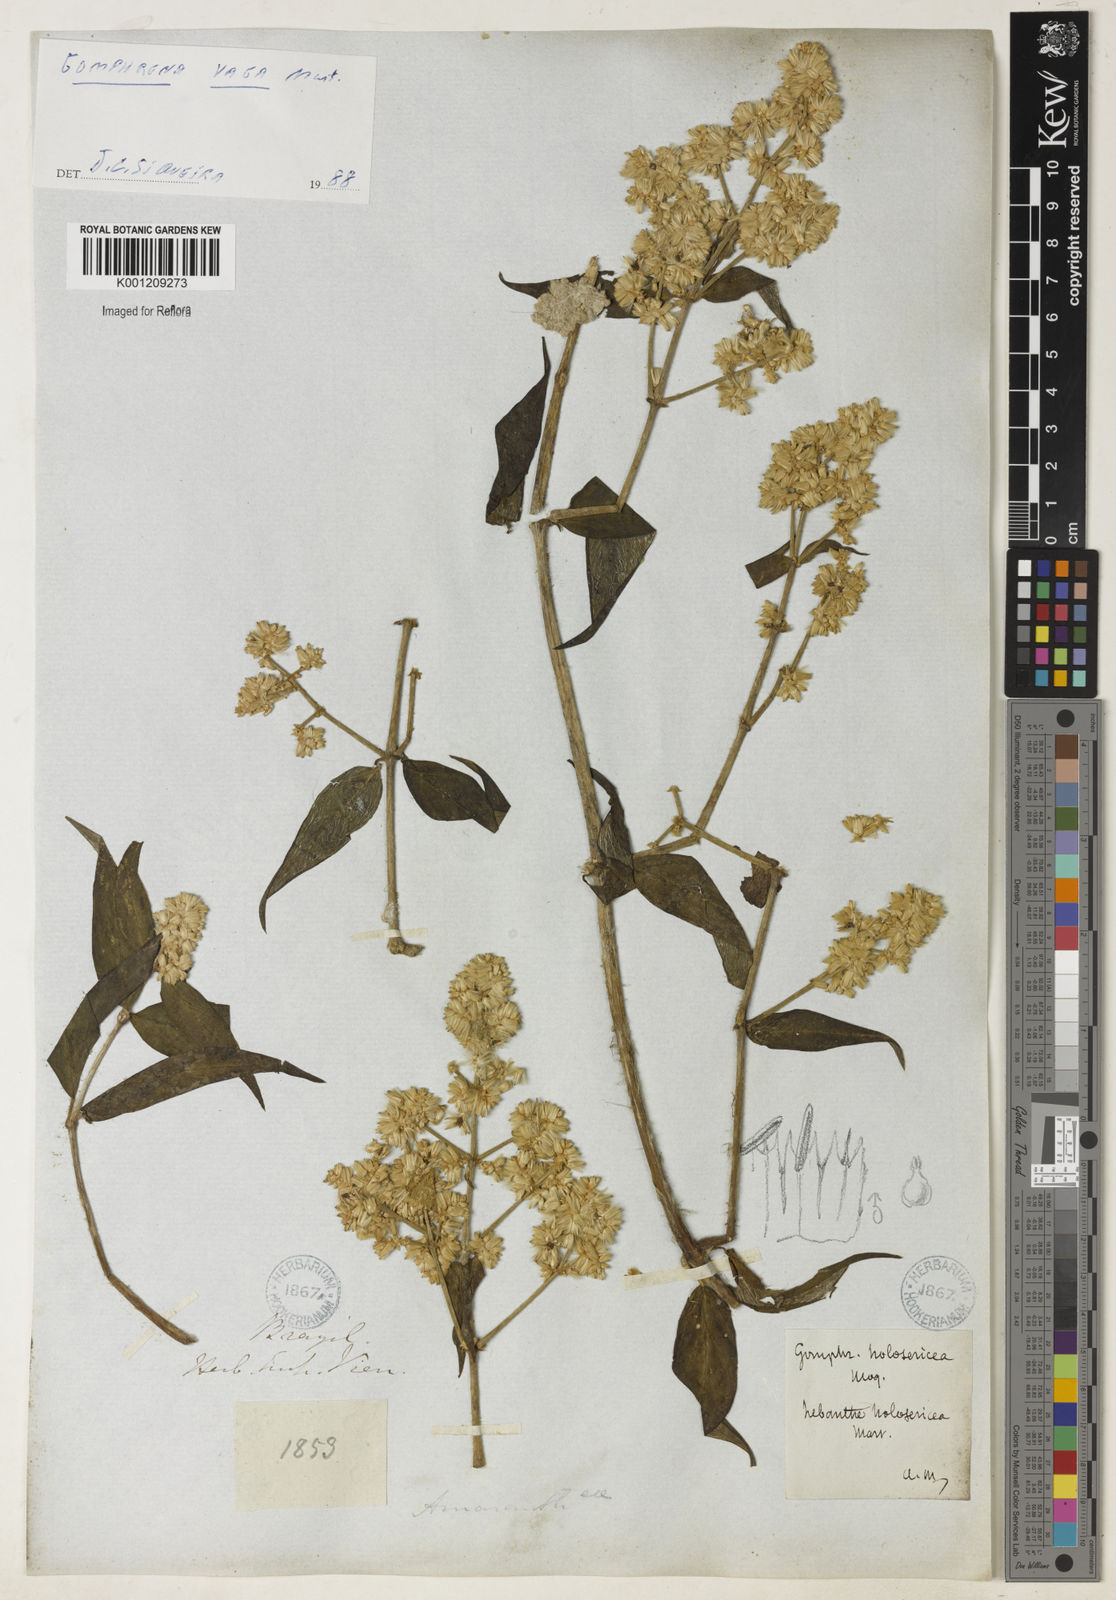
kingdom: Plantae
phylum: Tracheophyta
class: Magnoliopsida
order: Caryophyllales
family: Amaranthaceae
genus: Gomphrena
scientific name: Gomphrena vaga
